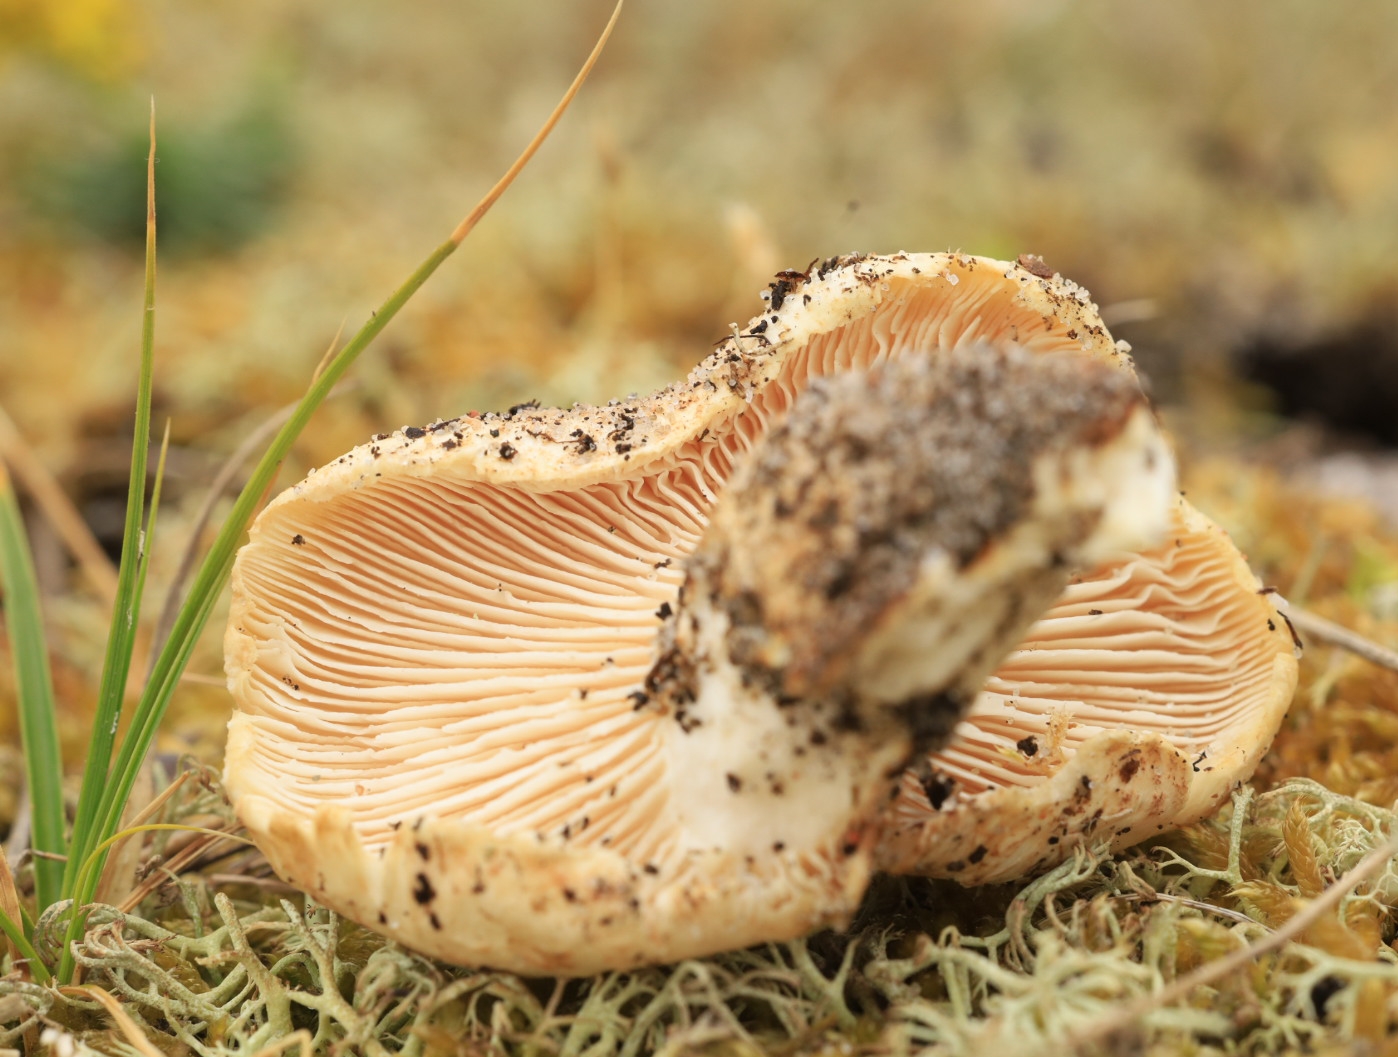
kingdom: Fungi
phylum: Basidiomycota
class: Agaricomycetes
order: Gloeophyllales
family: Gloeophyllaceae
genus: Neolentinus
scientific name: Neolentinus lepideus
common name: skællet sejhat
